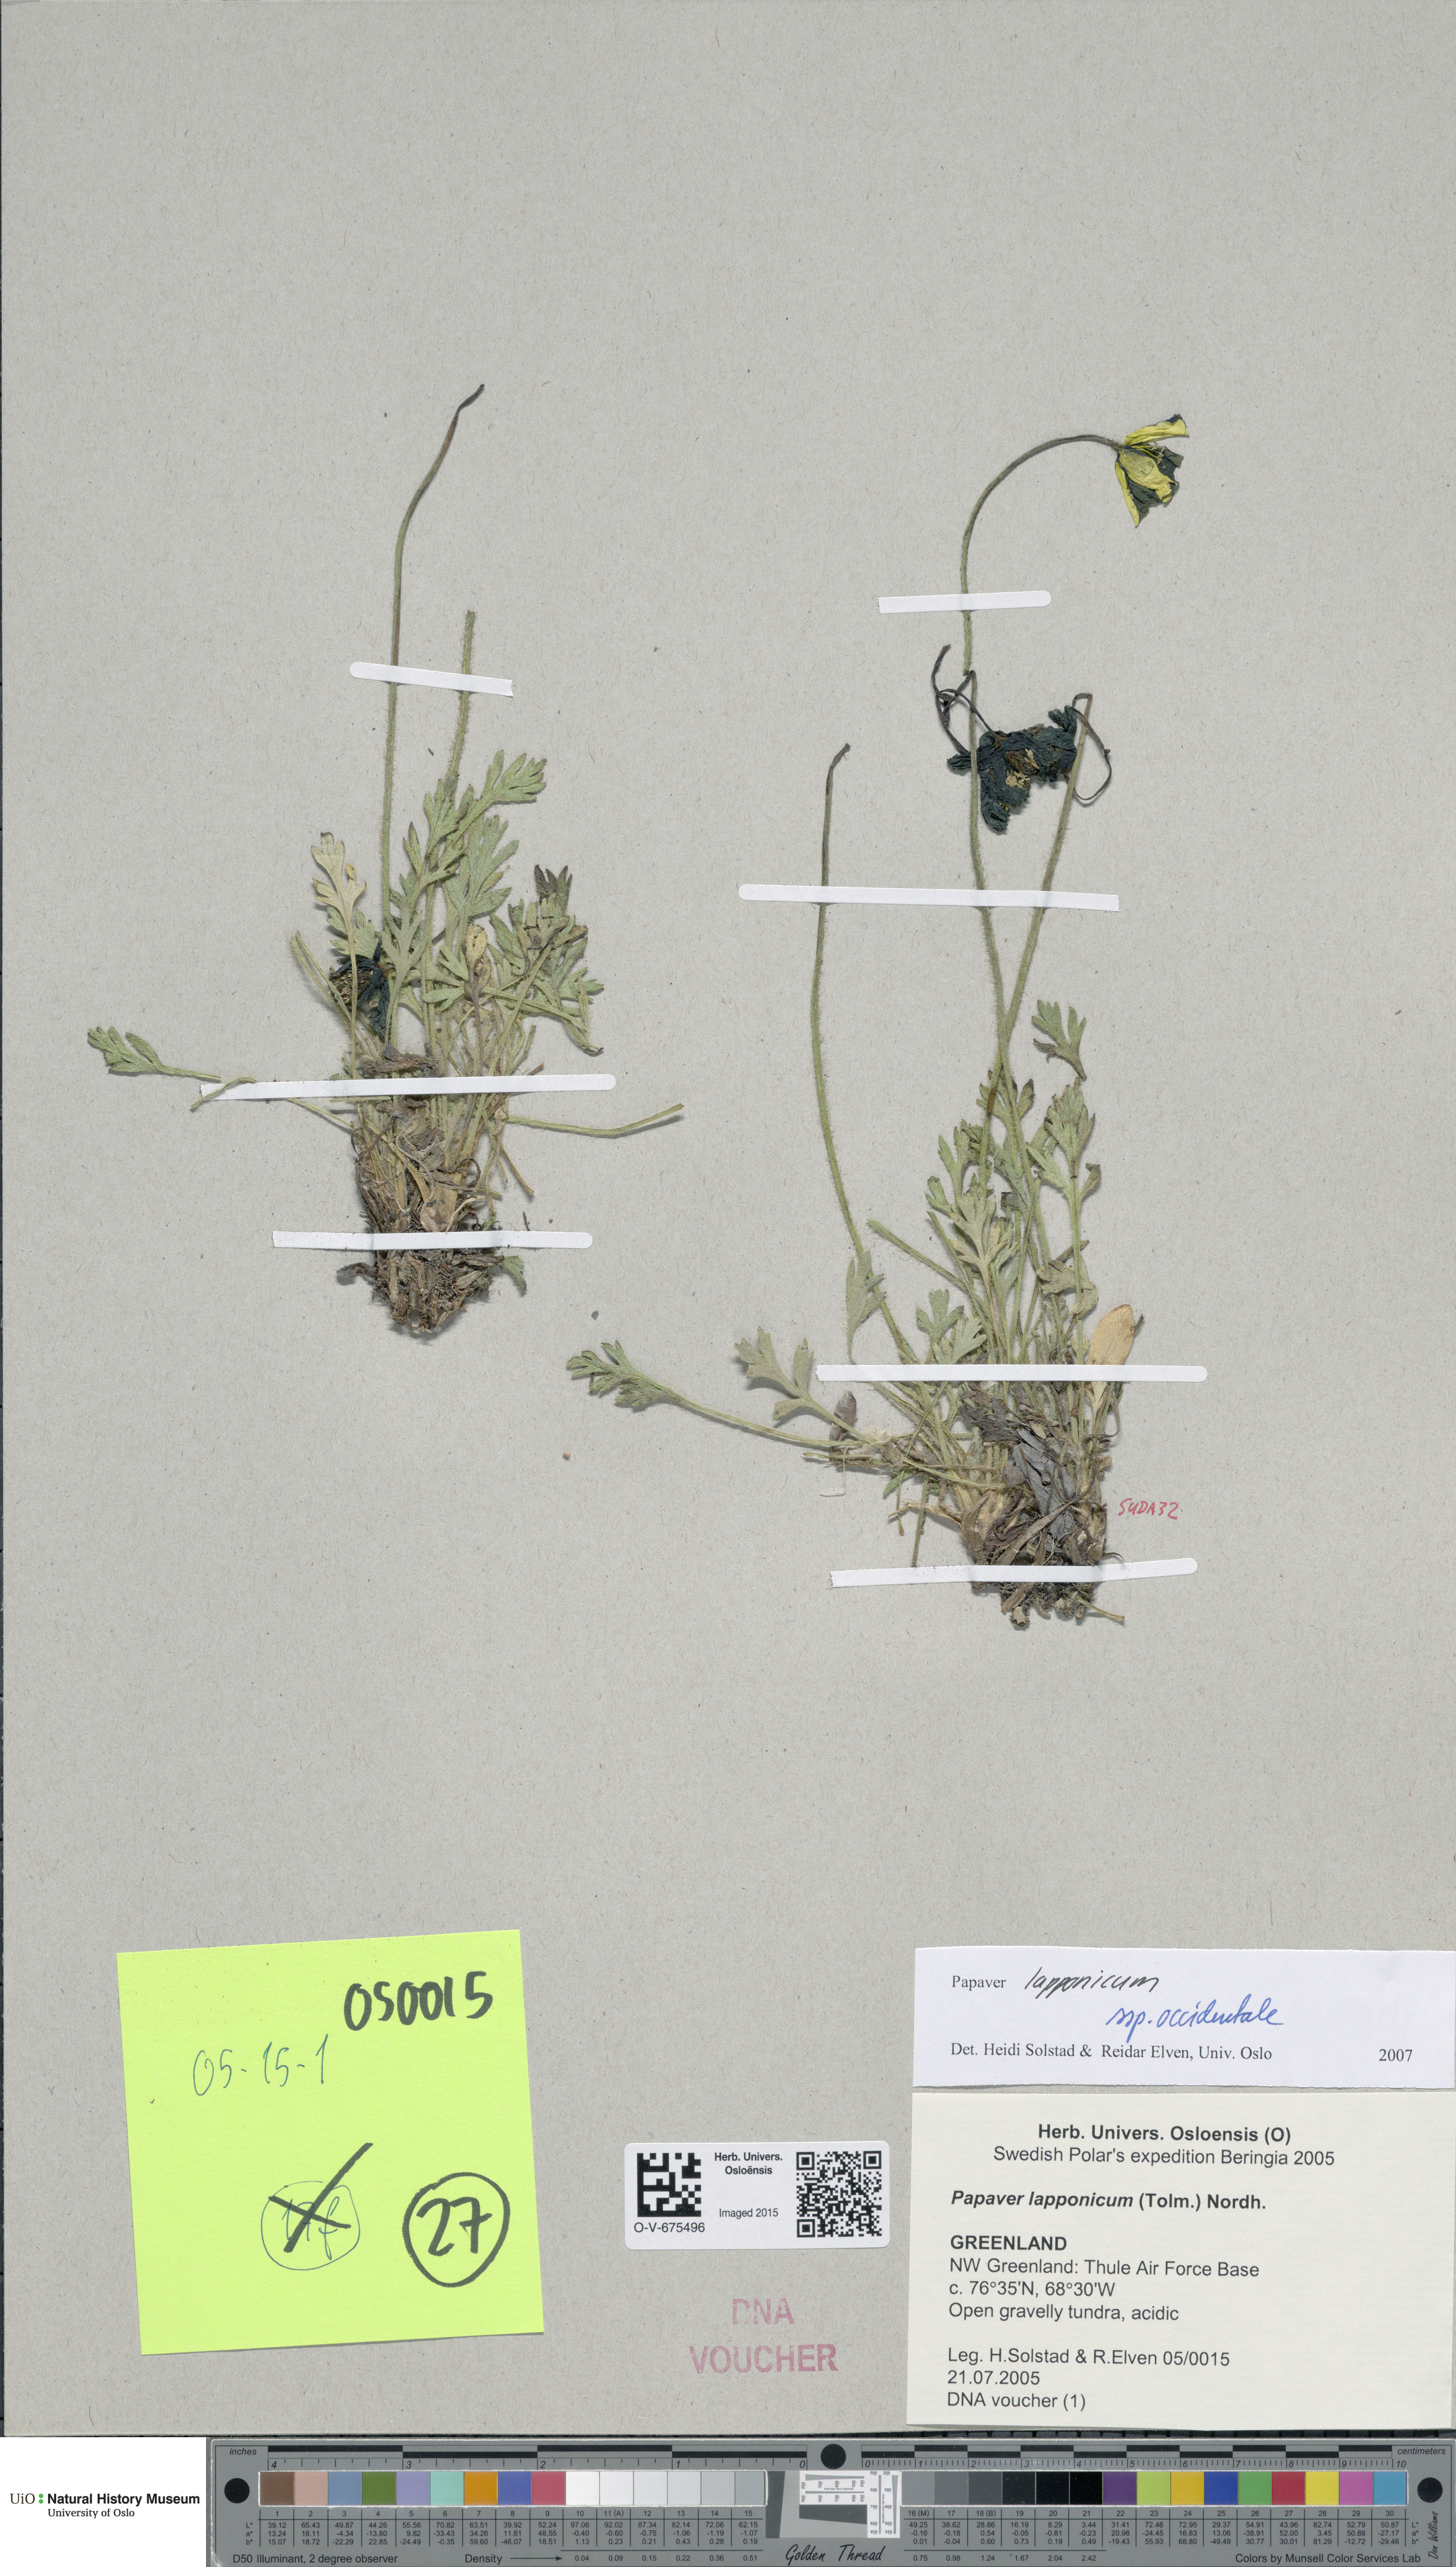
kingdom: Plantae
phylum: Tracheophyta
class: Magnoliopsida
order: Ranunculales
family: Papaveraceae
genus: Papaver
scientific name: Papaver lapponicum
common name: Lapland poppy
